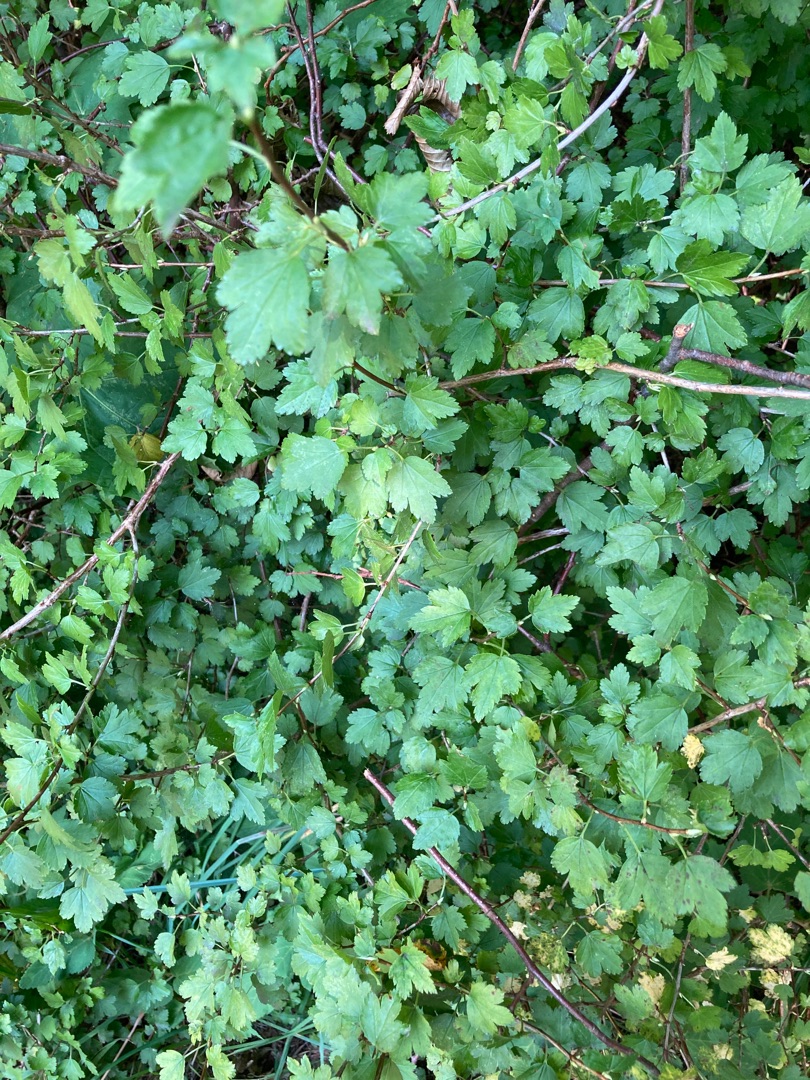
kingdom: Plantae
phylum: Tracheophyta
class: Magnoliopsida
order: Saxifragales
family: Grossulariaceae
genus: Ribes
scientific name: Ribes alpinum
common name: Fjeld-ribs
